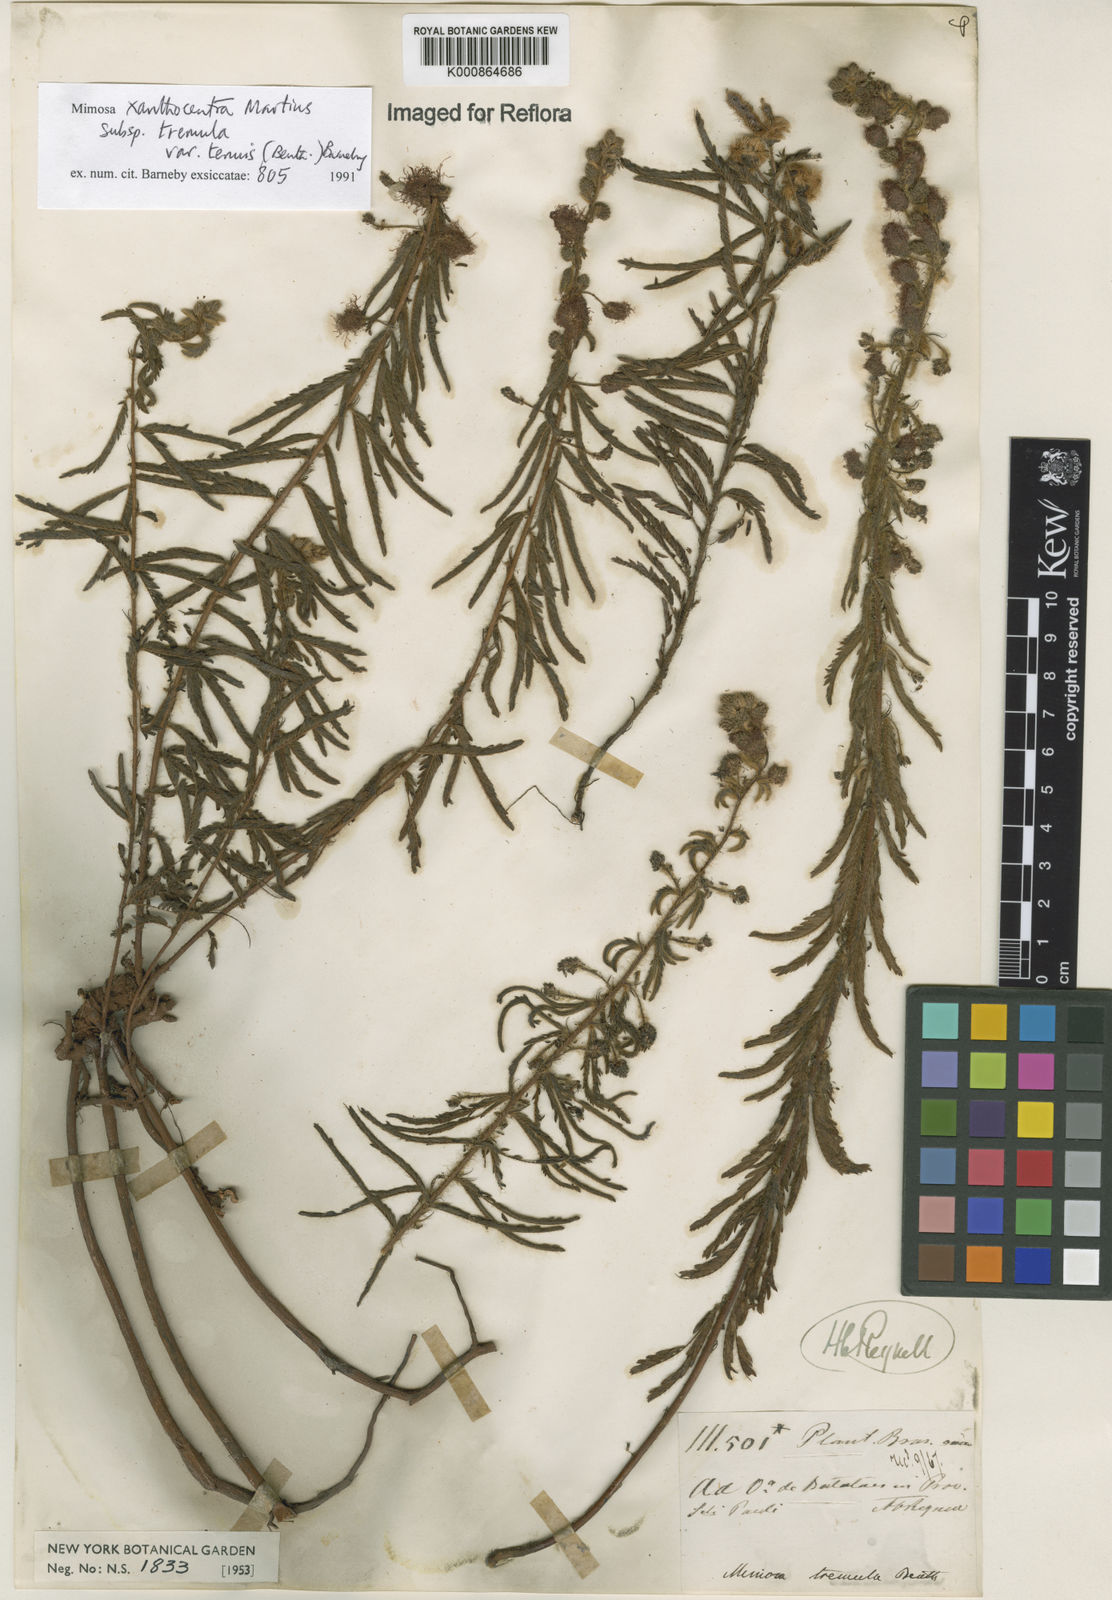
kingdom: Plantae
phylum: Tracheophyta
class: Magnoliopsida
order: Fabales
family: Fabaceae
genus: Mimosa
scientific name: Mimosa xanthocentra
